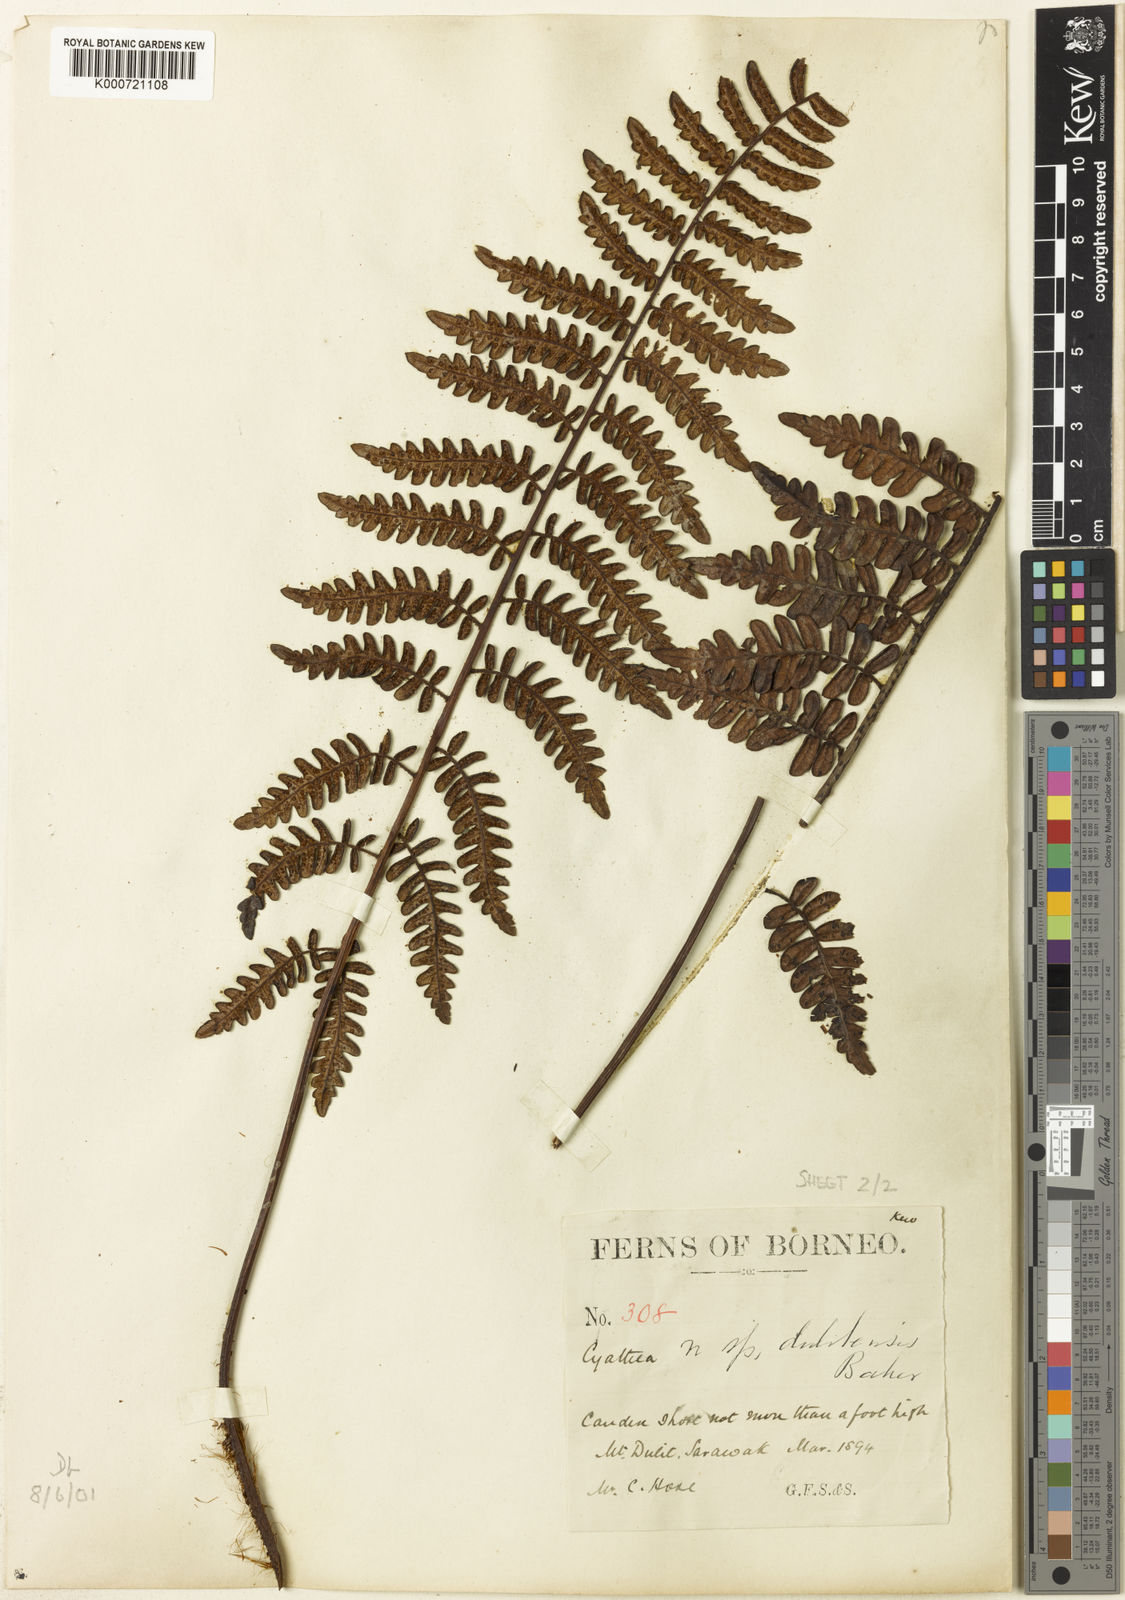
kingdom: Plantae
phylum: Tracheophyta
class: Polypodiopsida
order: Cyatheales
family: Cyatheaceae
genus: Sphaeropteris
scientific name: Sphaeropteris assimilis
